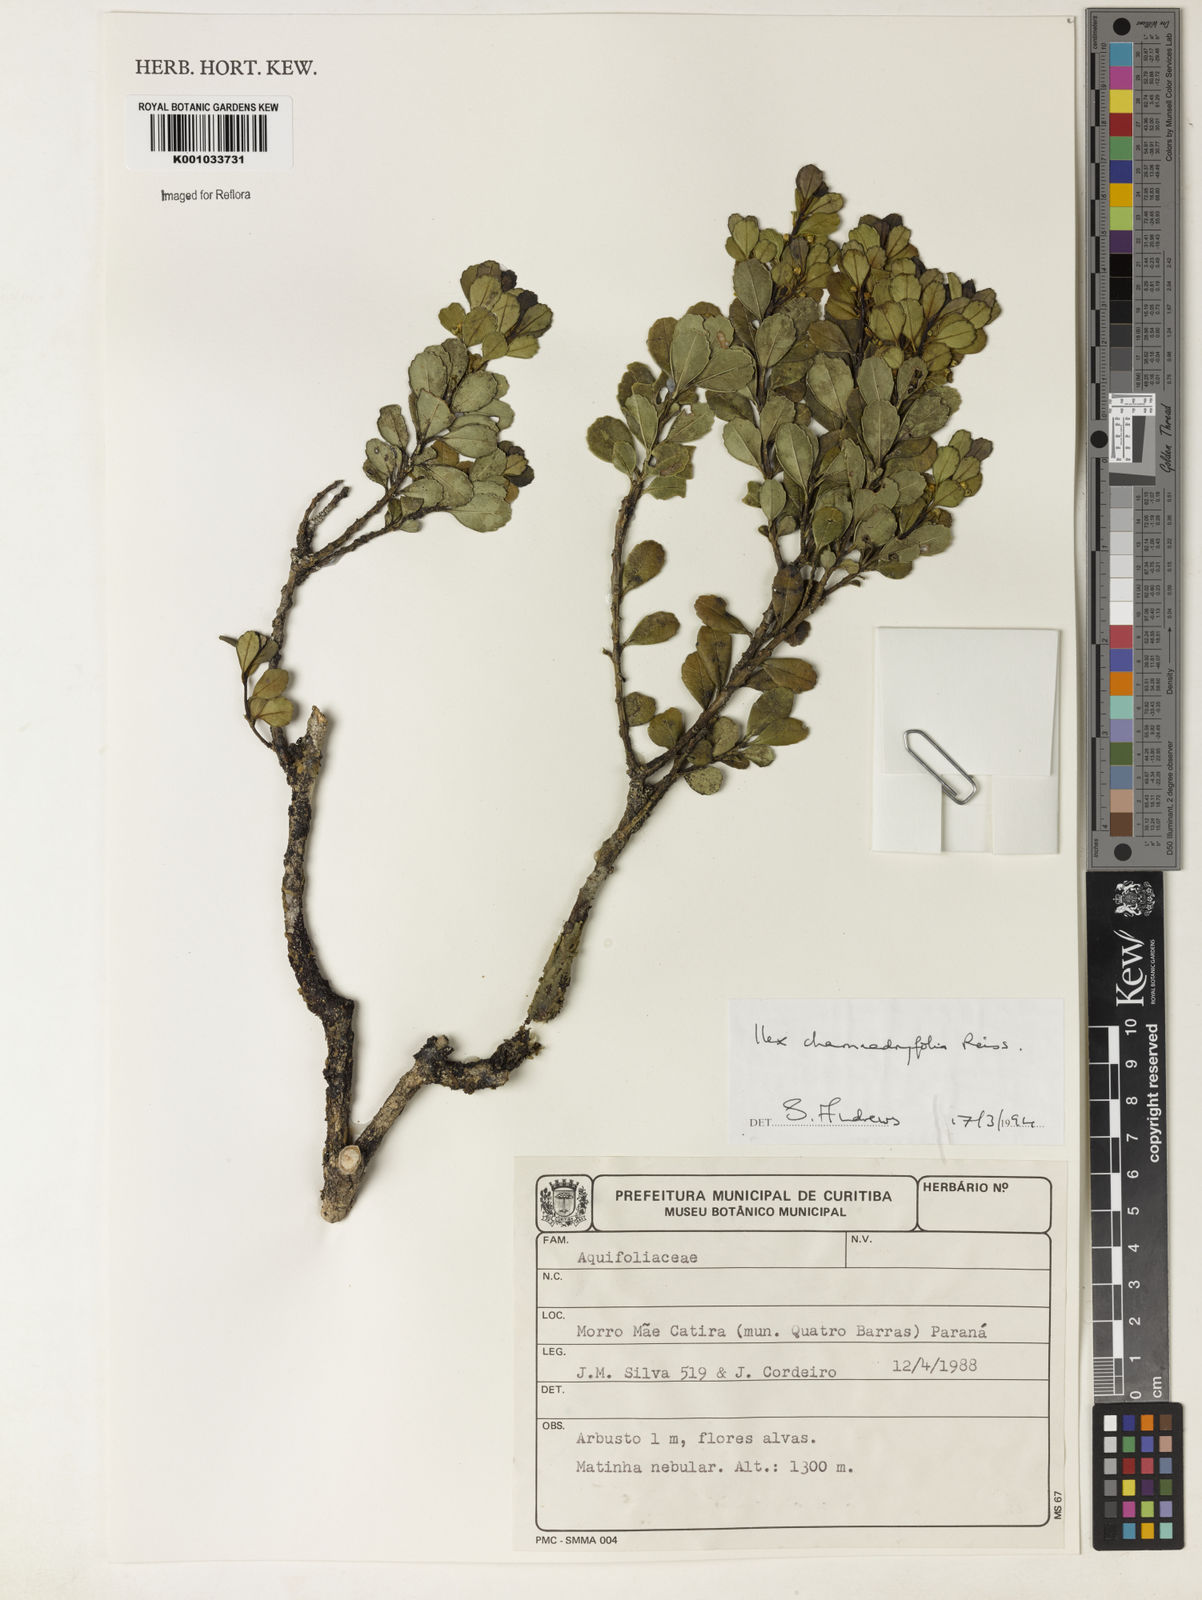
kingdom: Plantae
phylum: Tracheophyta
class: Magnoliopsida
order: Aquifoliales
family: Aquifoliaceae
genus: Ilex
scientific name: Ilex chamaedryfolia
